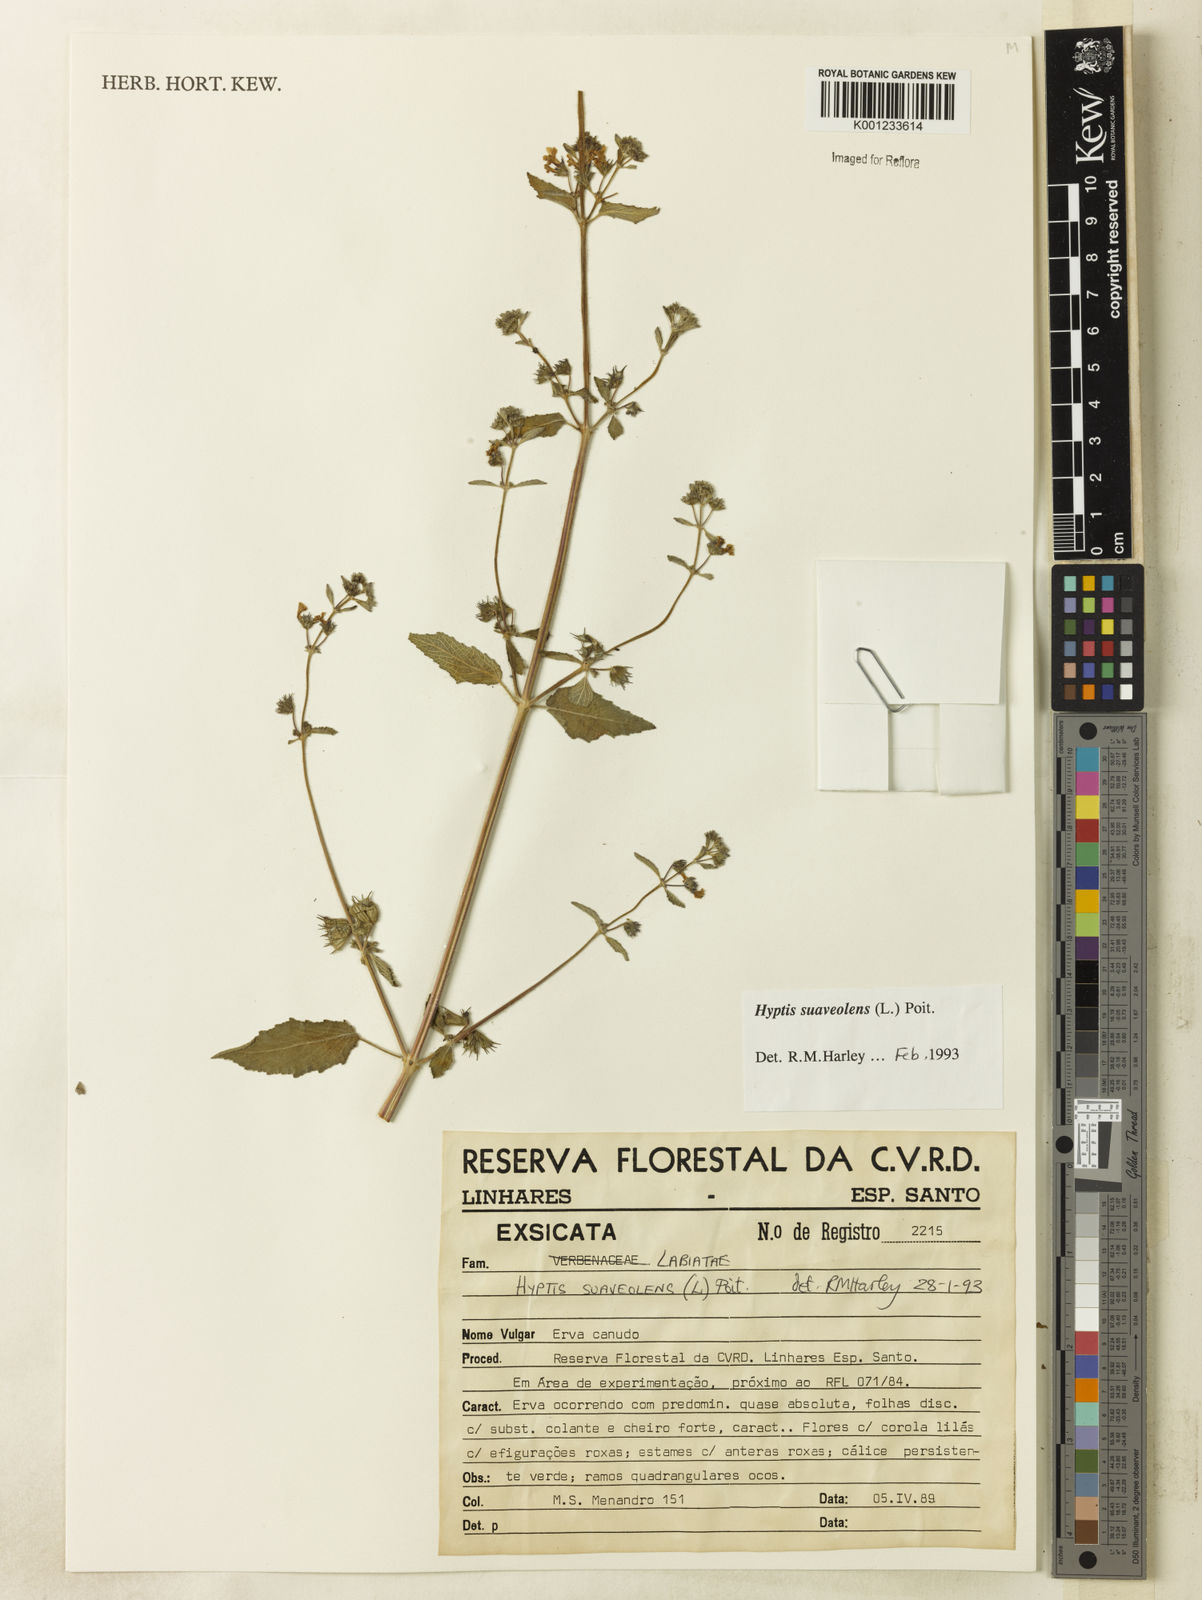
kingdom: Plantae
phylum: Tracheophyta
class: Magnoliopsida
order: Lamiales
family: Lamiaceae
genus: Mesosphaerum
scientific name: Mesosphaerum suaveolens
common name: Pignut
